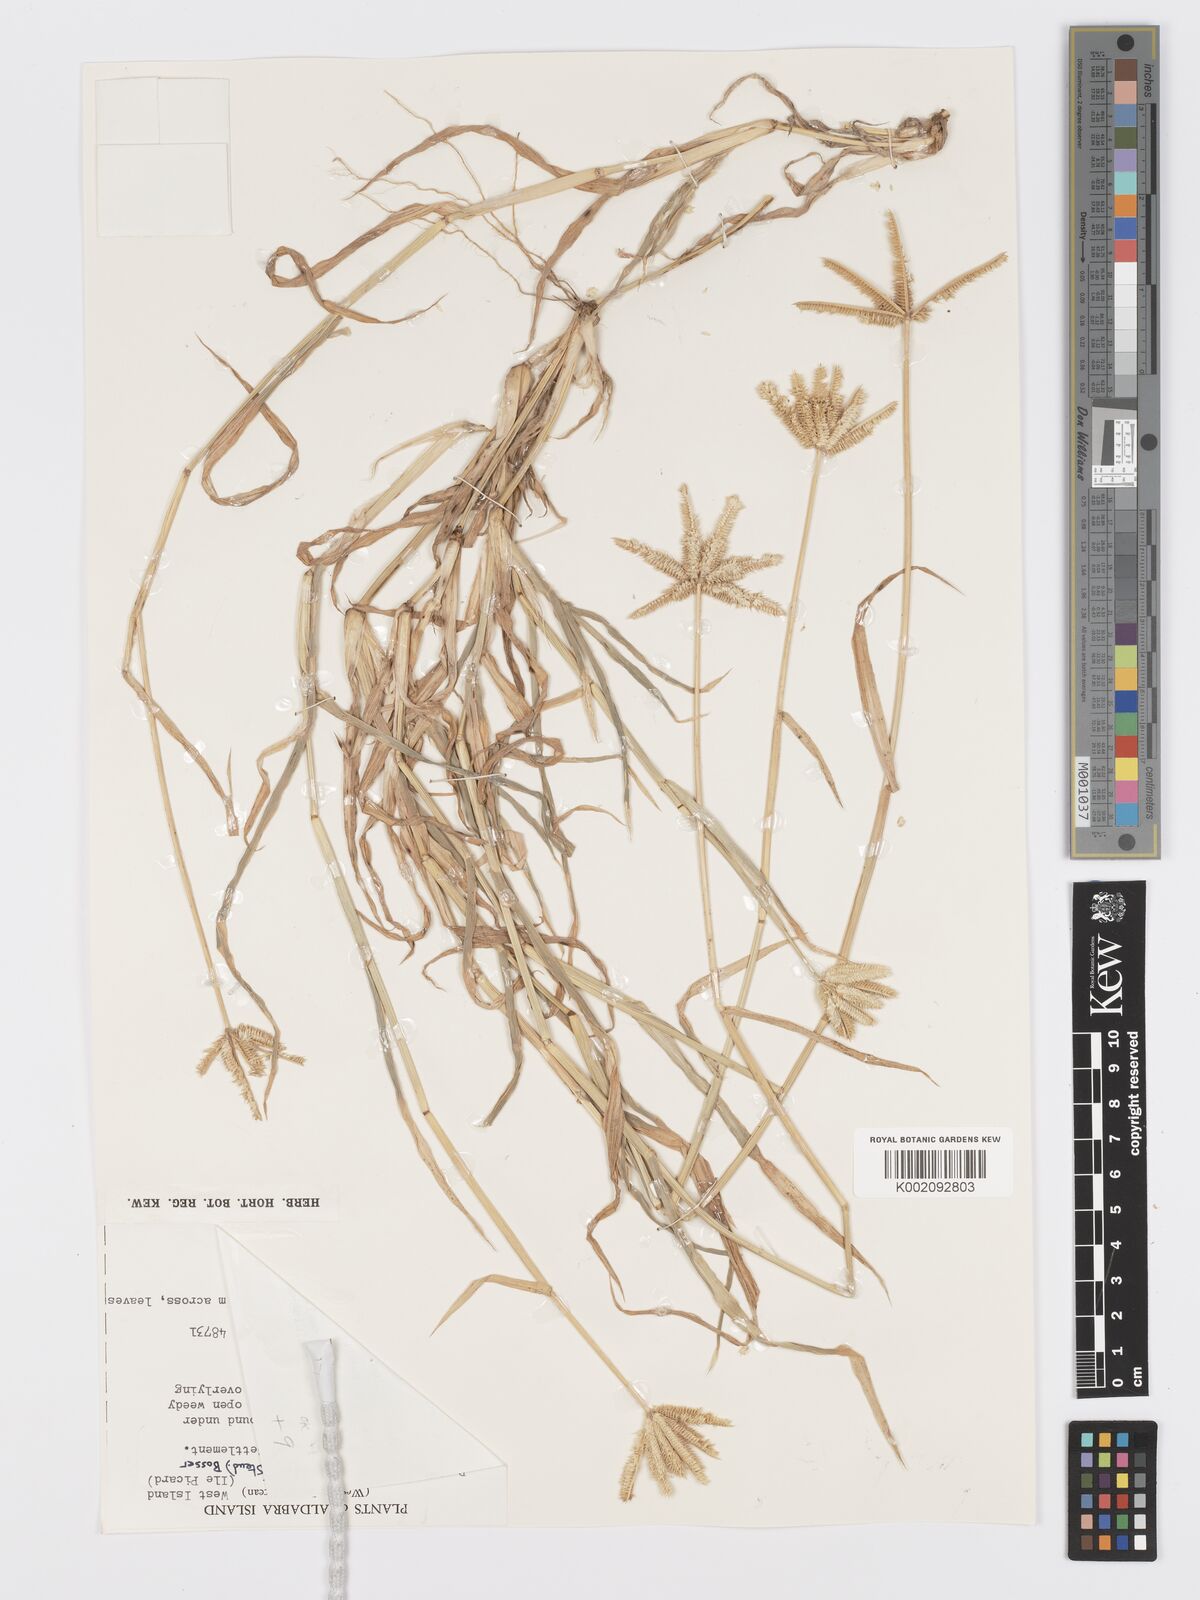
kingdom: Plantae
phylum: Tracheophyta
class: Liliopsida
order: Poales
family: Poaceae
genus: Dactyloctenium
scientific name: Dactyloctenium ctenoides
